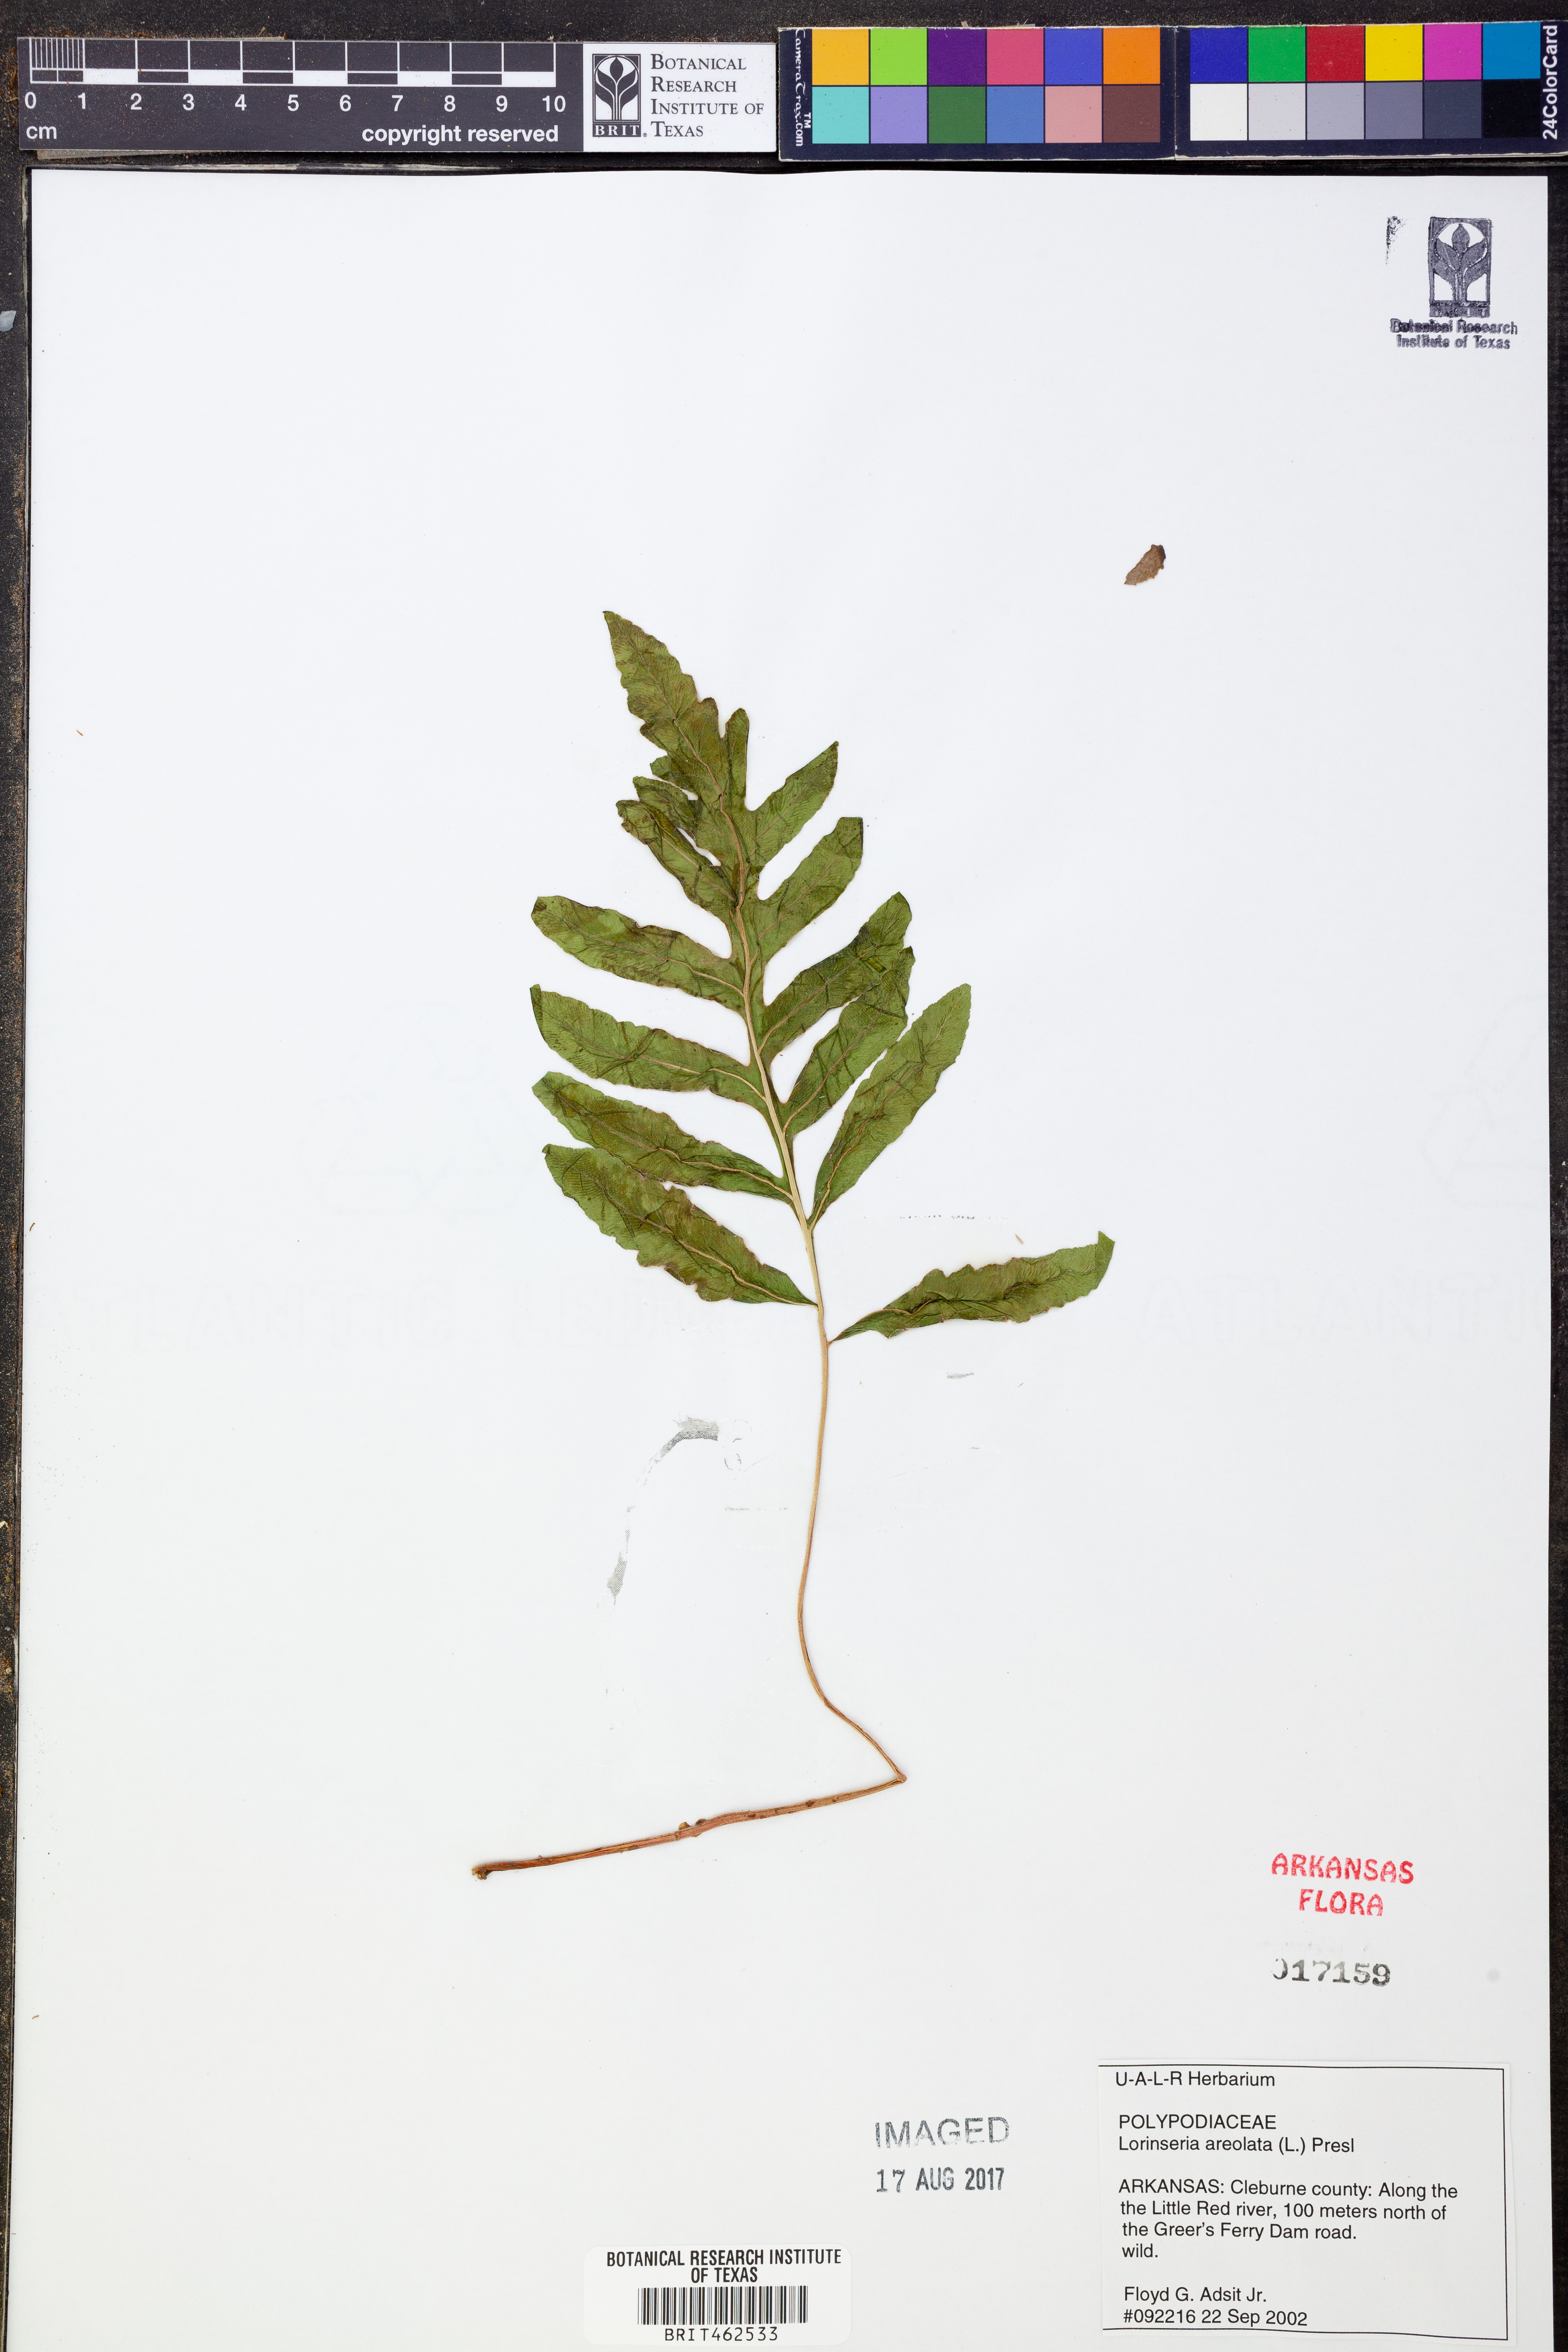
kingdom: Plantae
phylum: Tracheophyta
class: Polypodiopsida
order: Polypodiales
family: Blechnaceae
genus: Lorinseria
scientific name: Lorinseria areolata
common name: Dwarf chain fern
